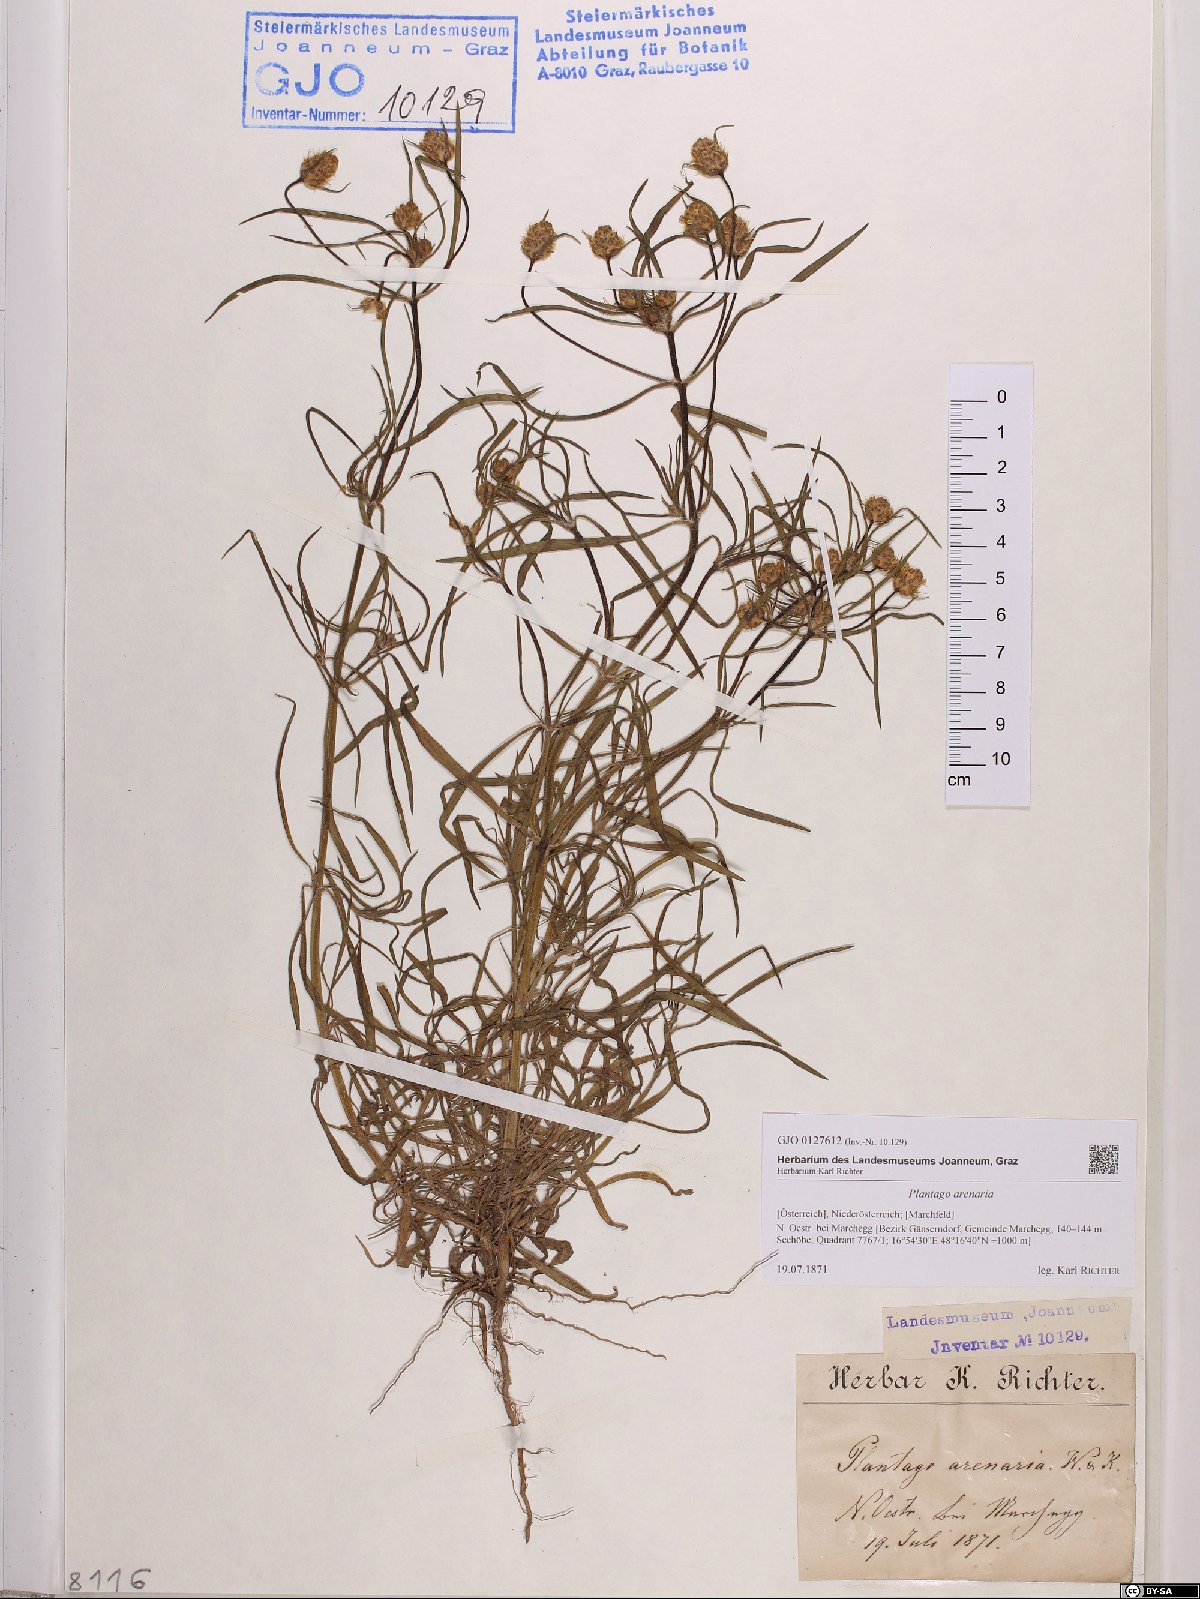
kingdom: Plantae
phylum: Tracheophyta
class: Magnoliopsida
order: Lamiales
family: Plantaginaceae
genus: Plantago
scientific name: Plantago arenaria
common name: Branched plantain
